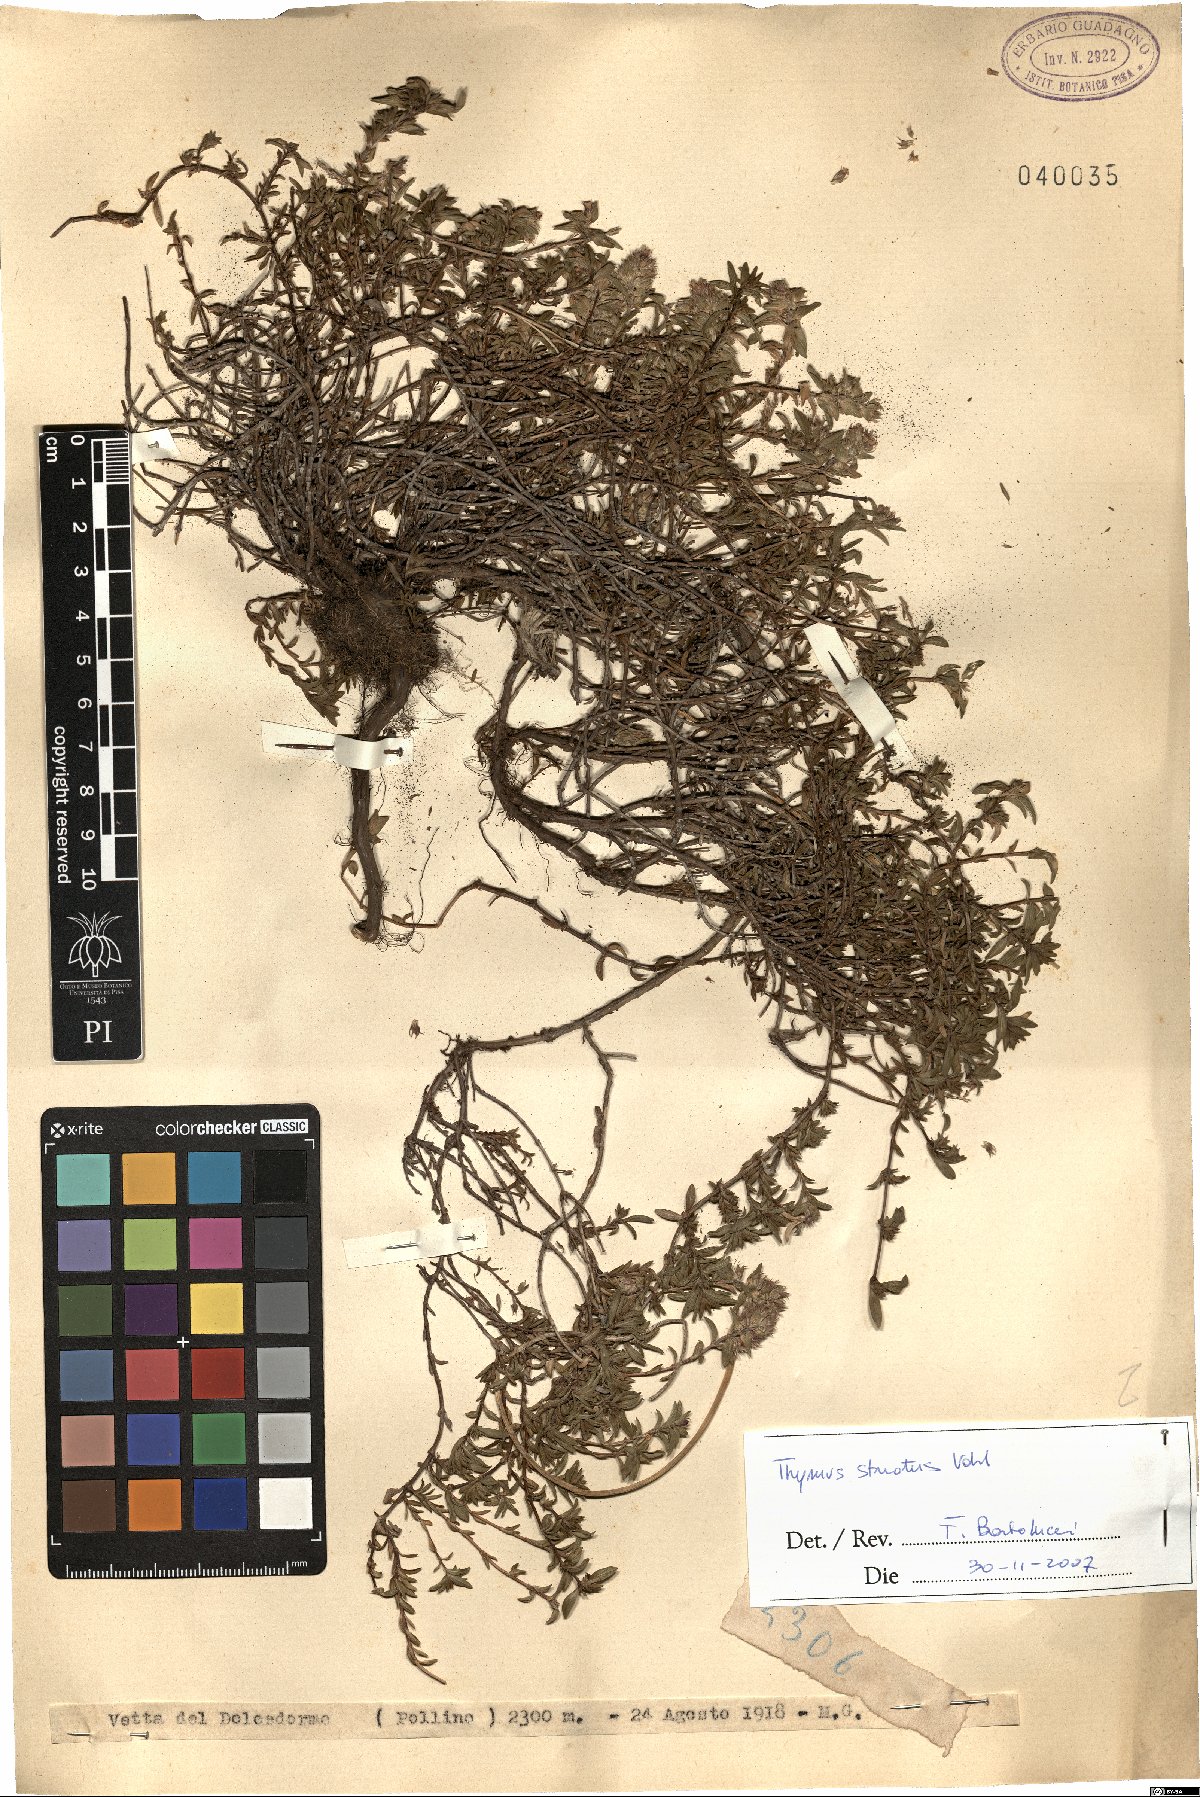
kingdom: Plantae
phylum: Tracheophyta
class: Magnoliopsida
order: Lamiales
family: Lamiaceae
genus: Thymus
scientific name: Thymus striatus
